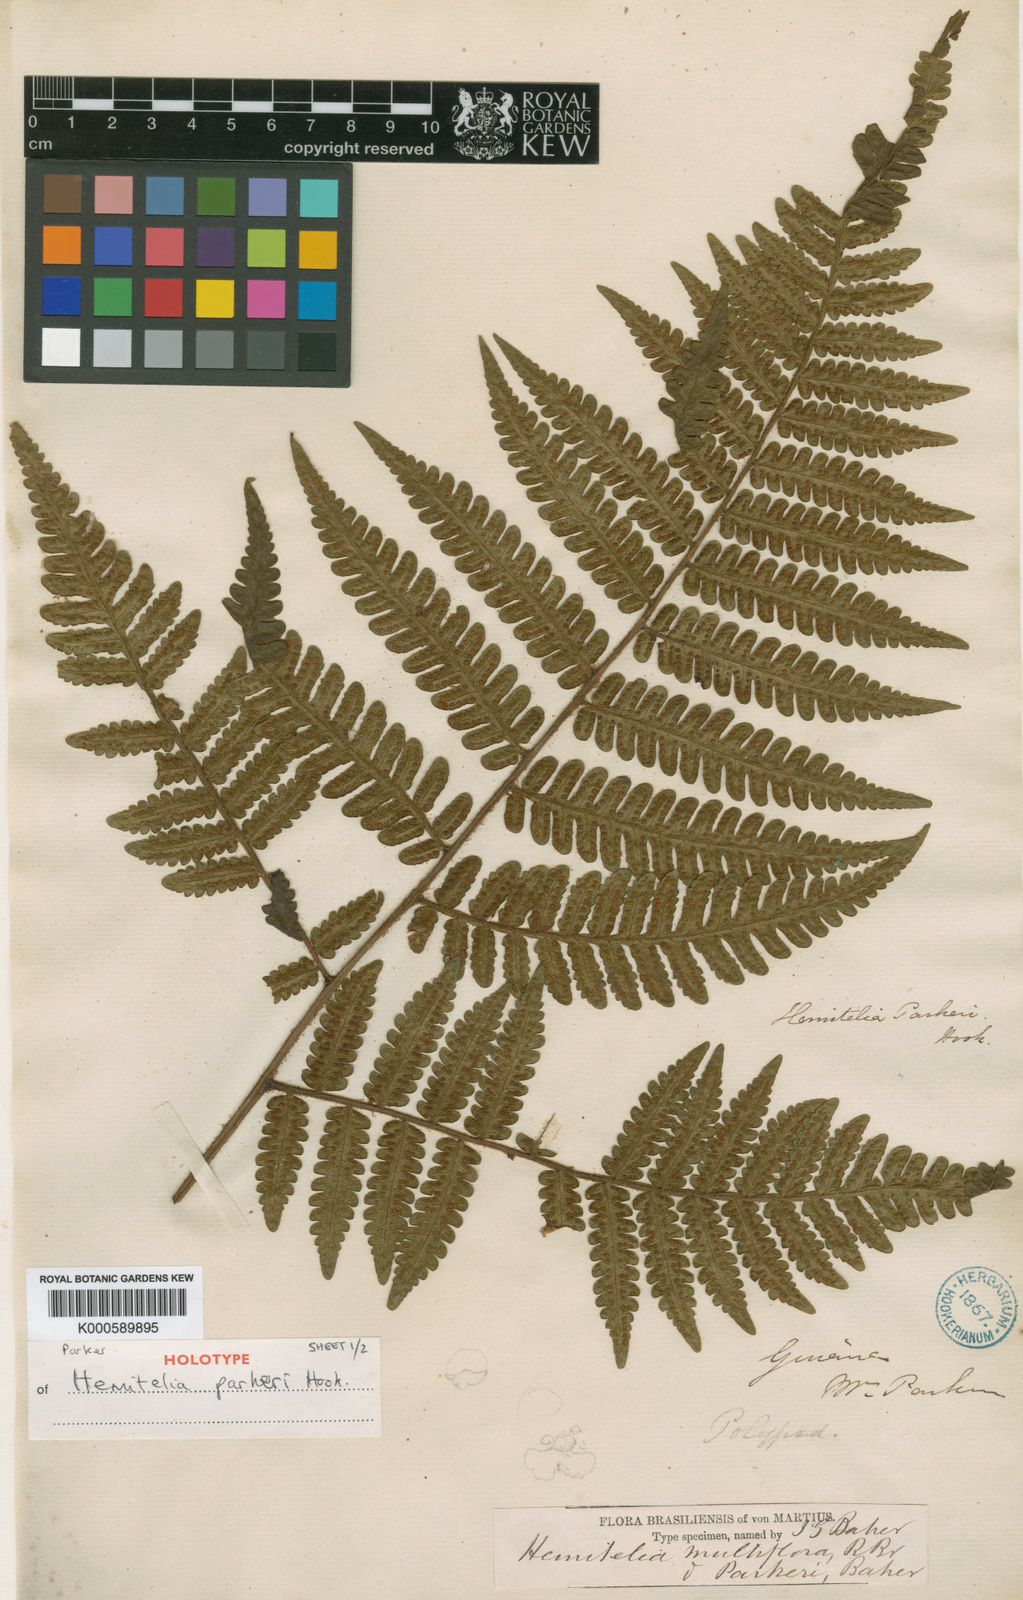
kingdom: Plantae
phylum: Tracheophyta
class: Polypodiopsida
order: Cyatheales
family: Cyatheaceae
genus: Cyathea
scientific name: Cyathea surinamensis
